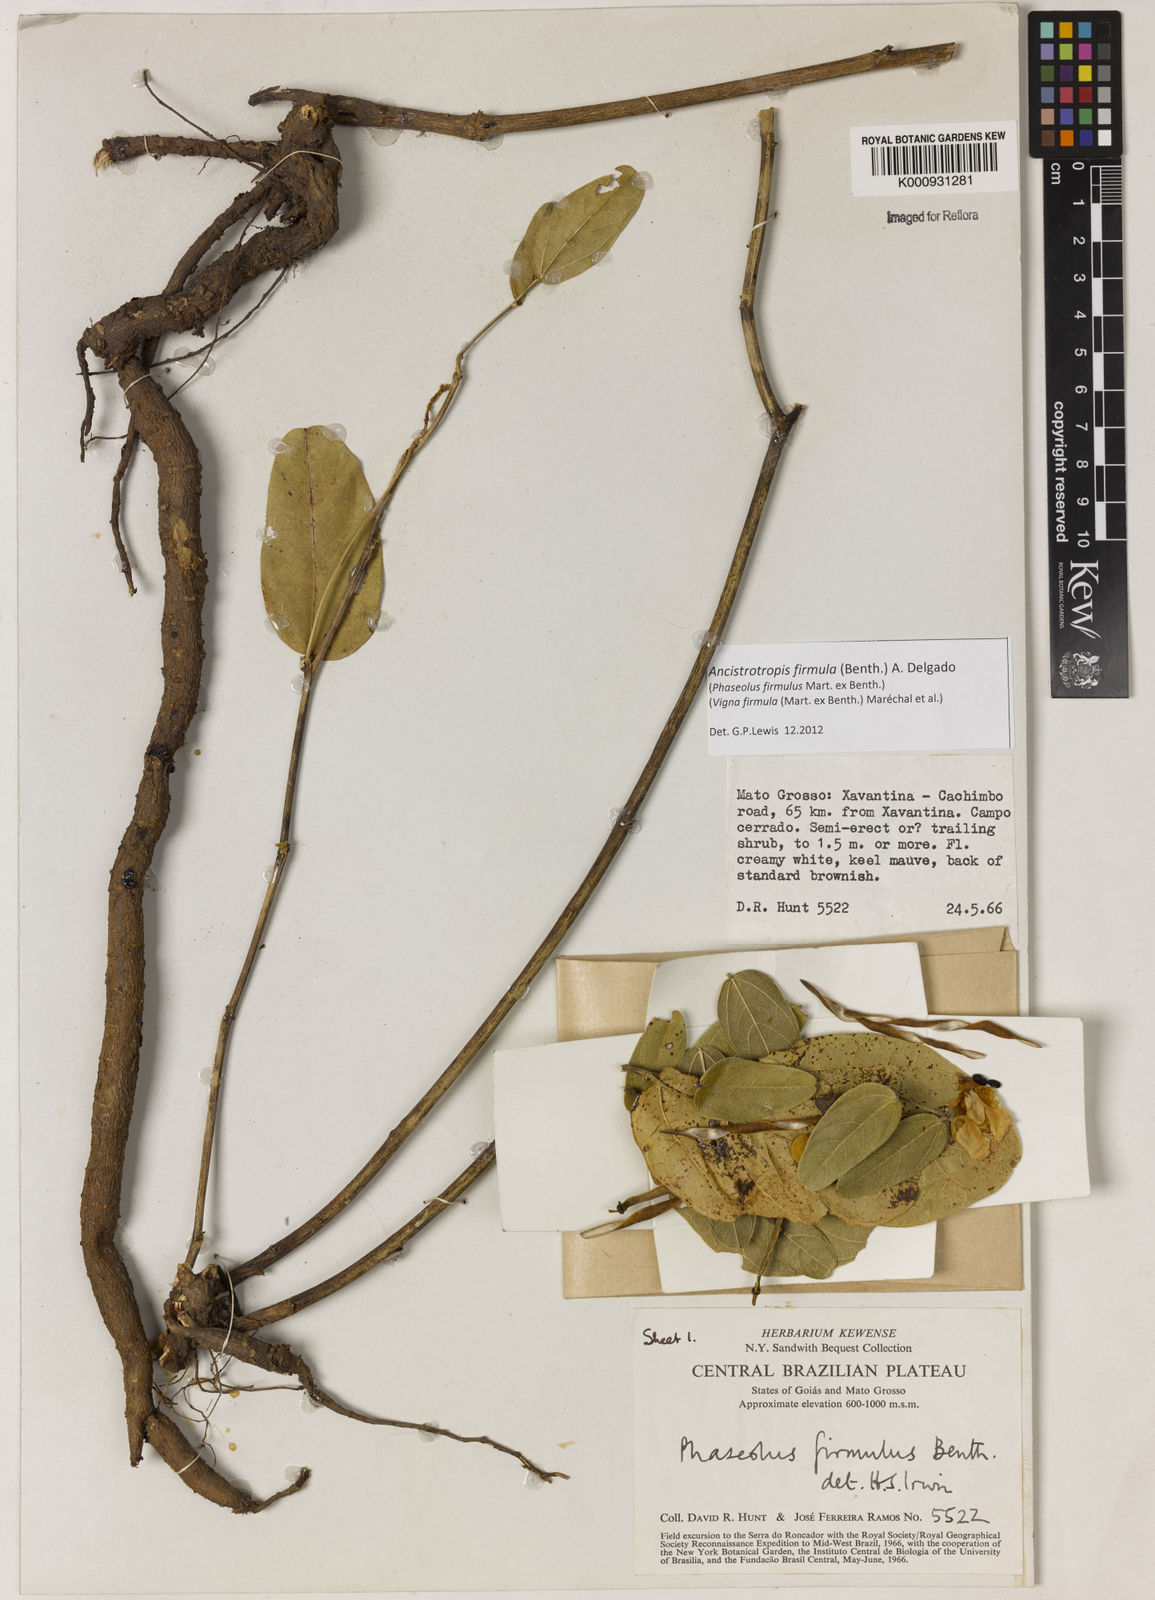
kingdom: Plantae
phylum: Tracheophyta
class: Magnoliopsida
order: Fabales
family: Fabaceae
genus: Ancistrotropis
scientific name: Ancistrotropis firmula
